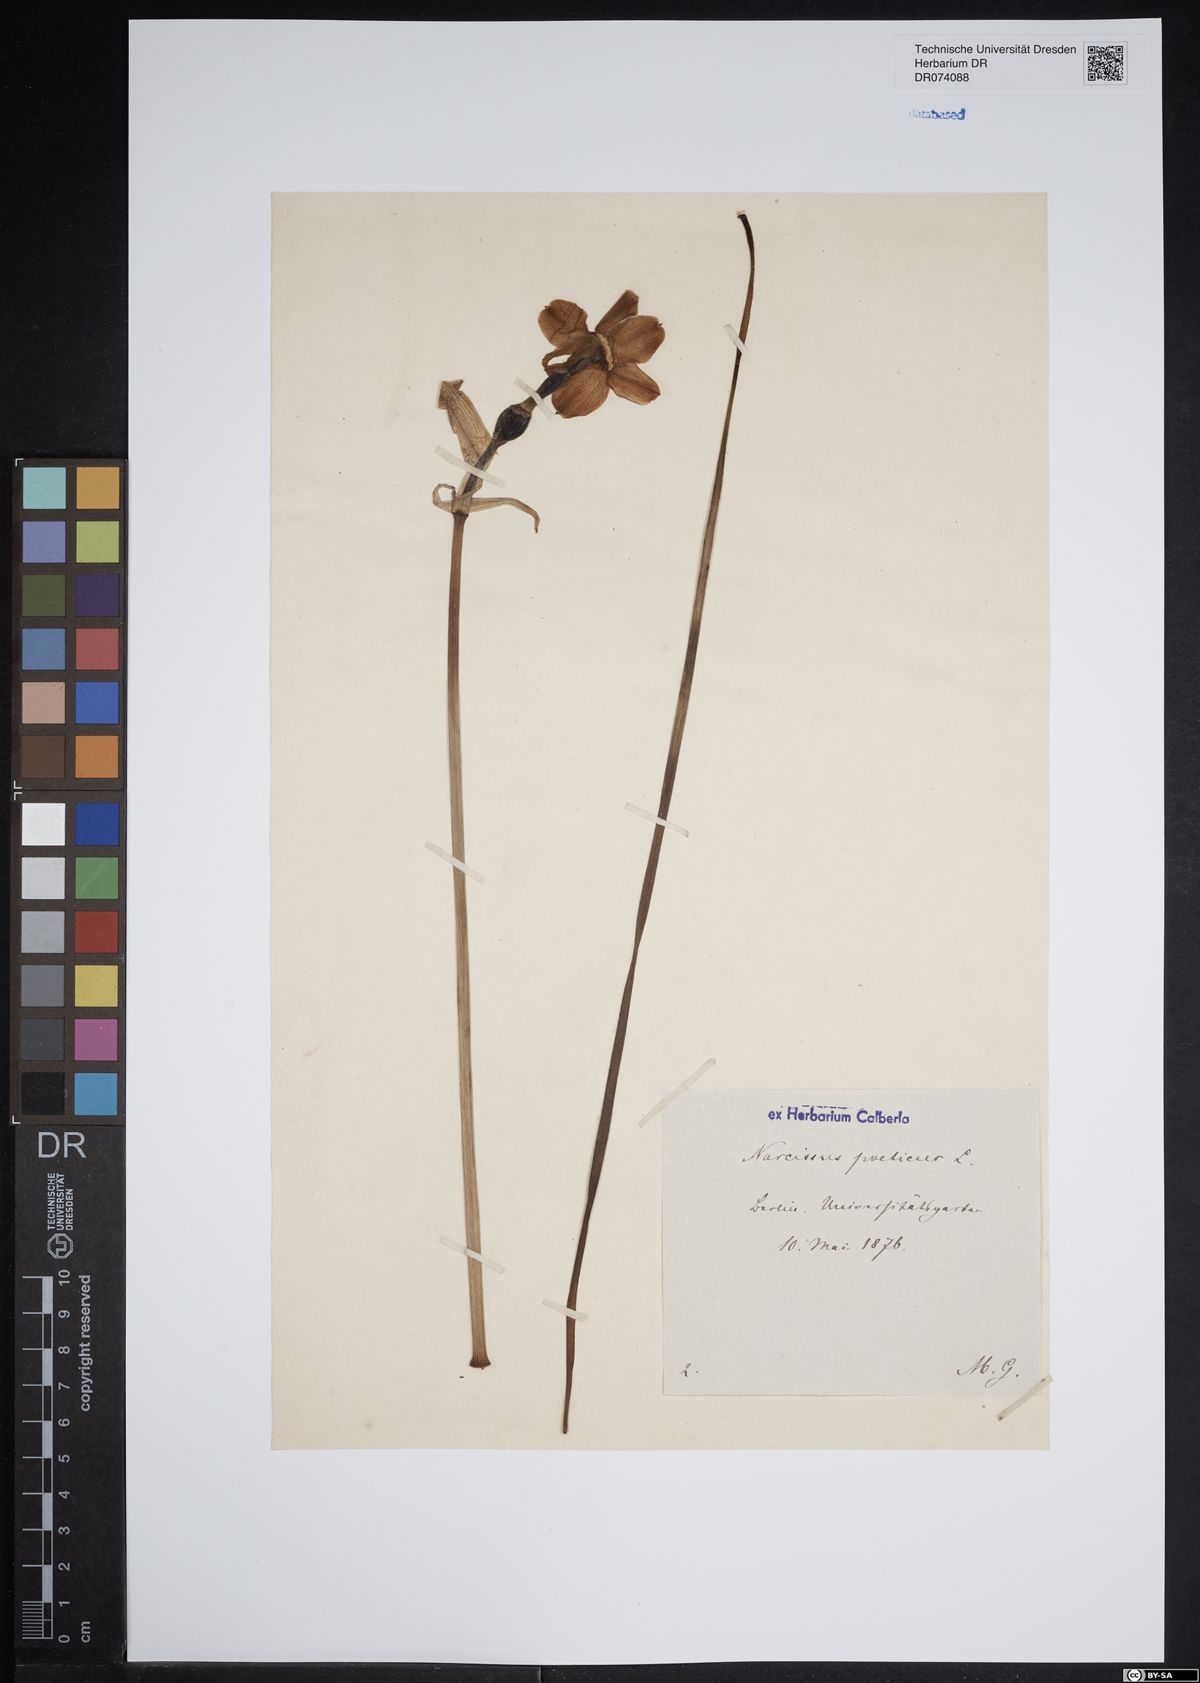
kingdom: Plantae
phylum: Tracheophyta
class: Liliopsida
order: Asparagales
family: Amaryllidaceae
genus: Narcissus
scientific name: Narcissus poeticus
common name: Pheasant's-eye daffodil
